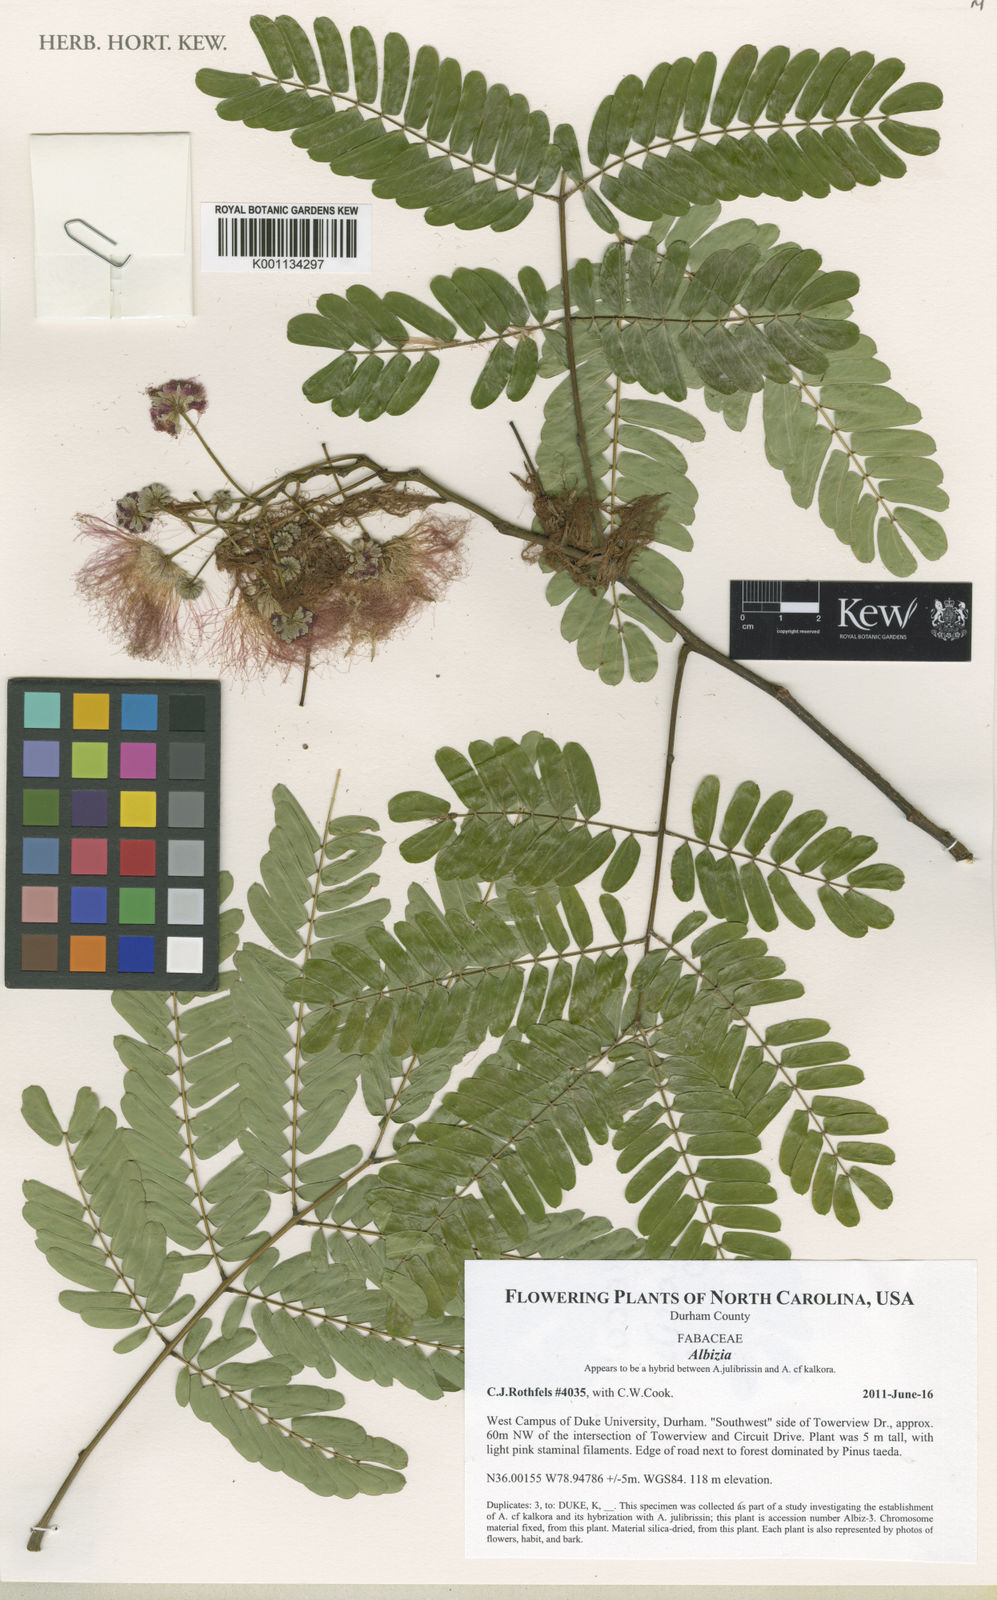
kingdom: Plantae
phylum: Tracheophyta
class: Magnoliopsida
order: Fabales
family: Fabaceae
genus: Albizia
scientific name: Albizia
